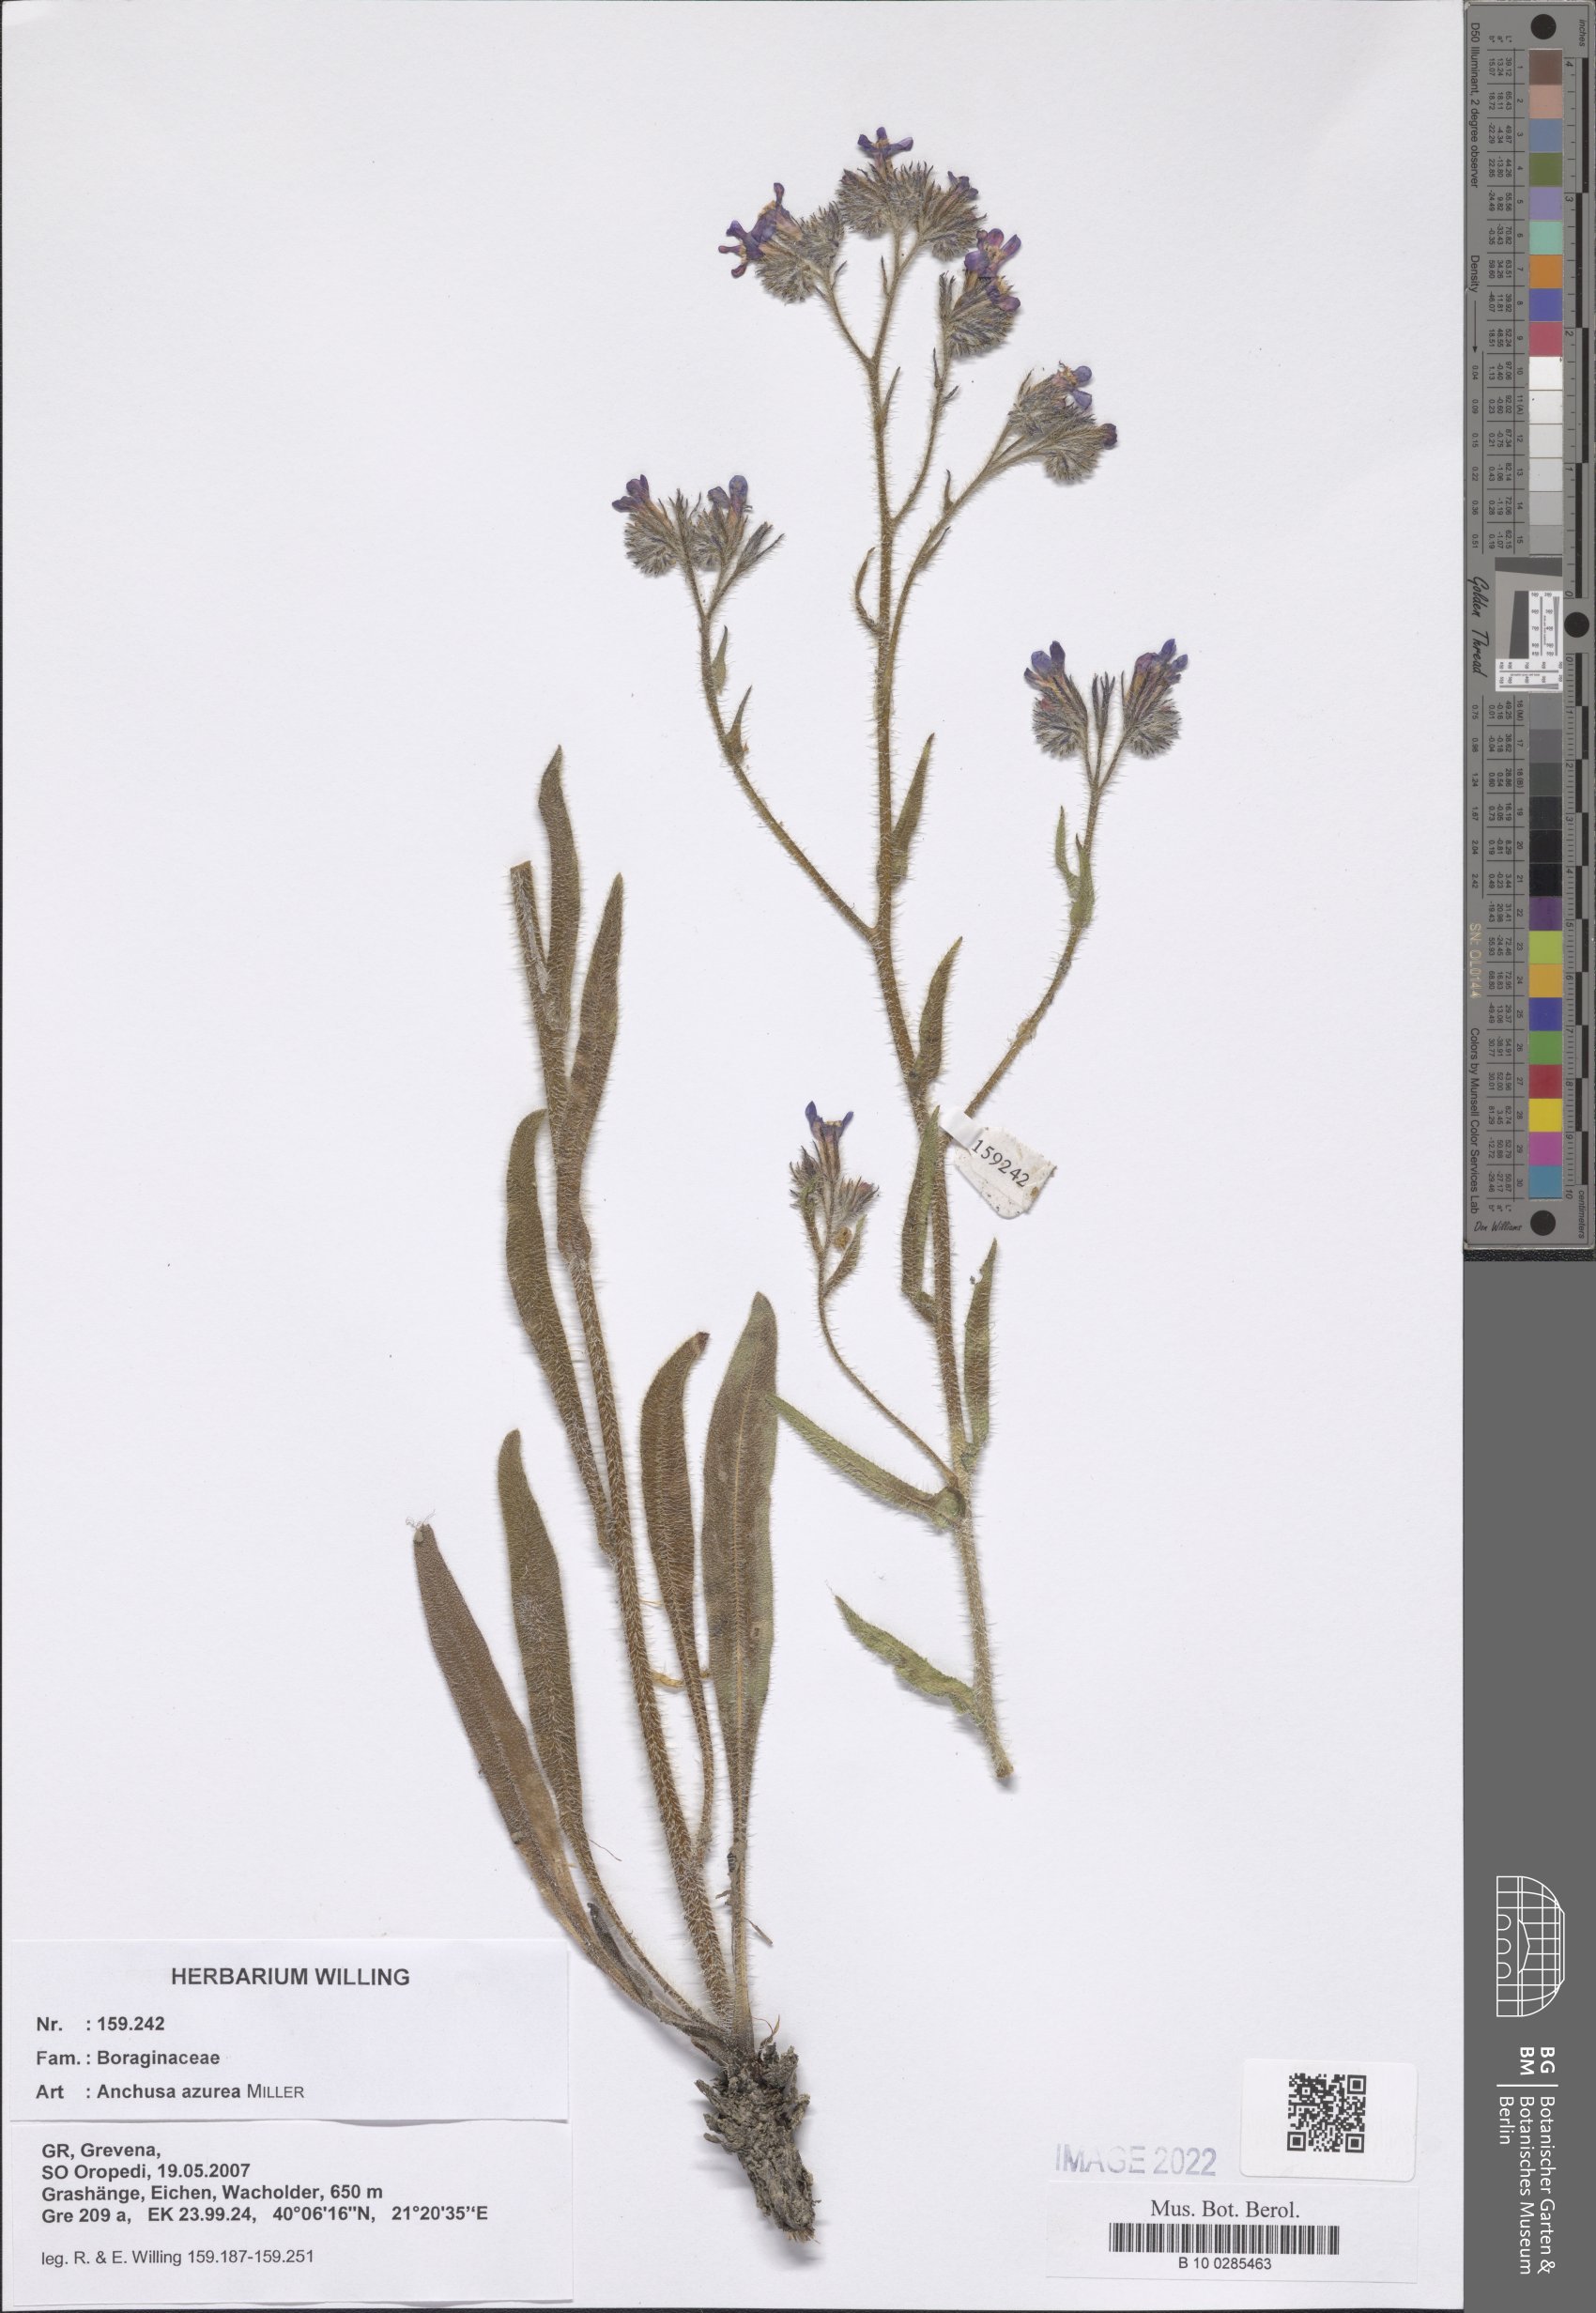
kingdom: Plantae
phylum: Tracheophyta
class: Magnoliopsida
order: Boraginales
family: Boraginaceae
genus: Anchusa
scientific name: Anchusa azurea
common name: Garden anchusa
